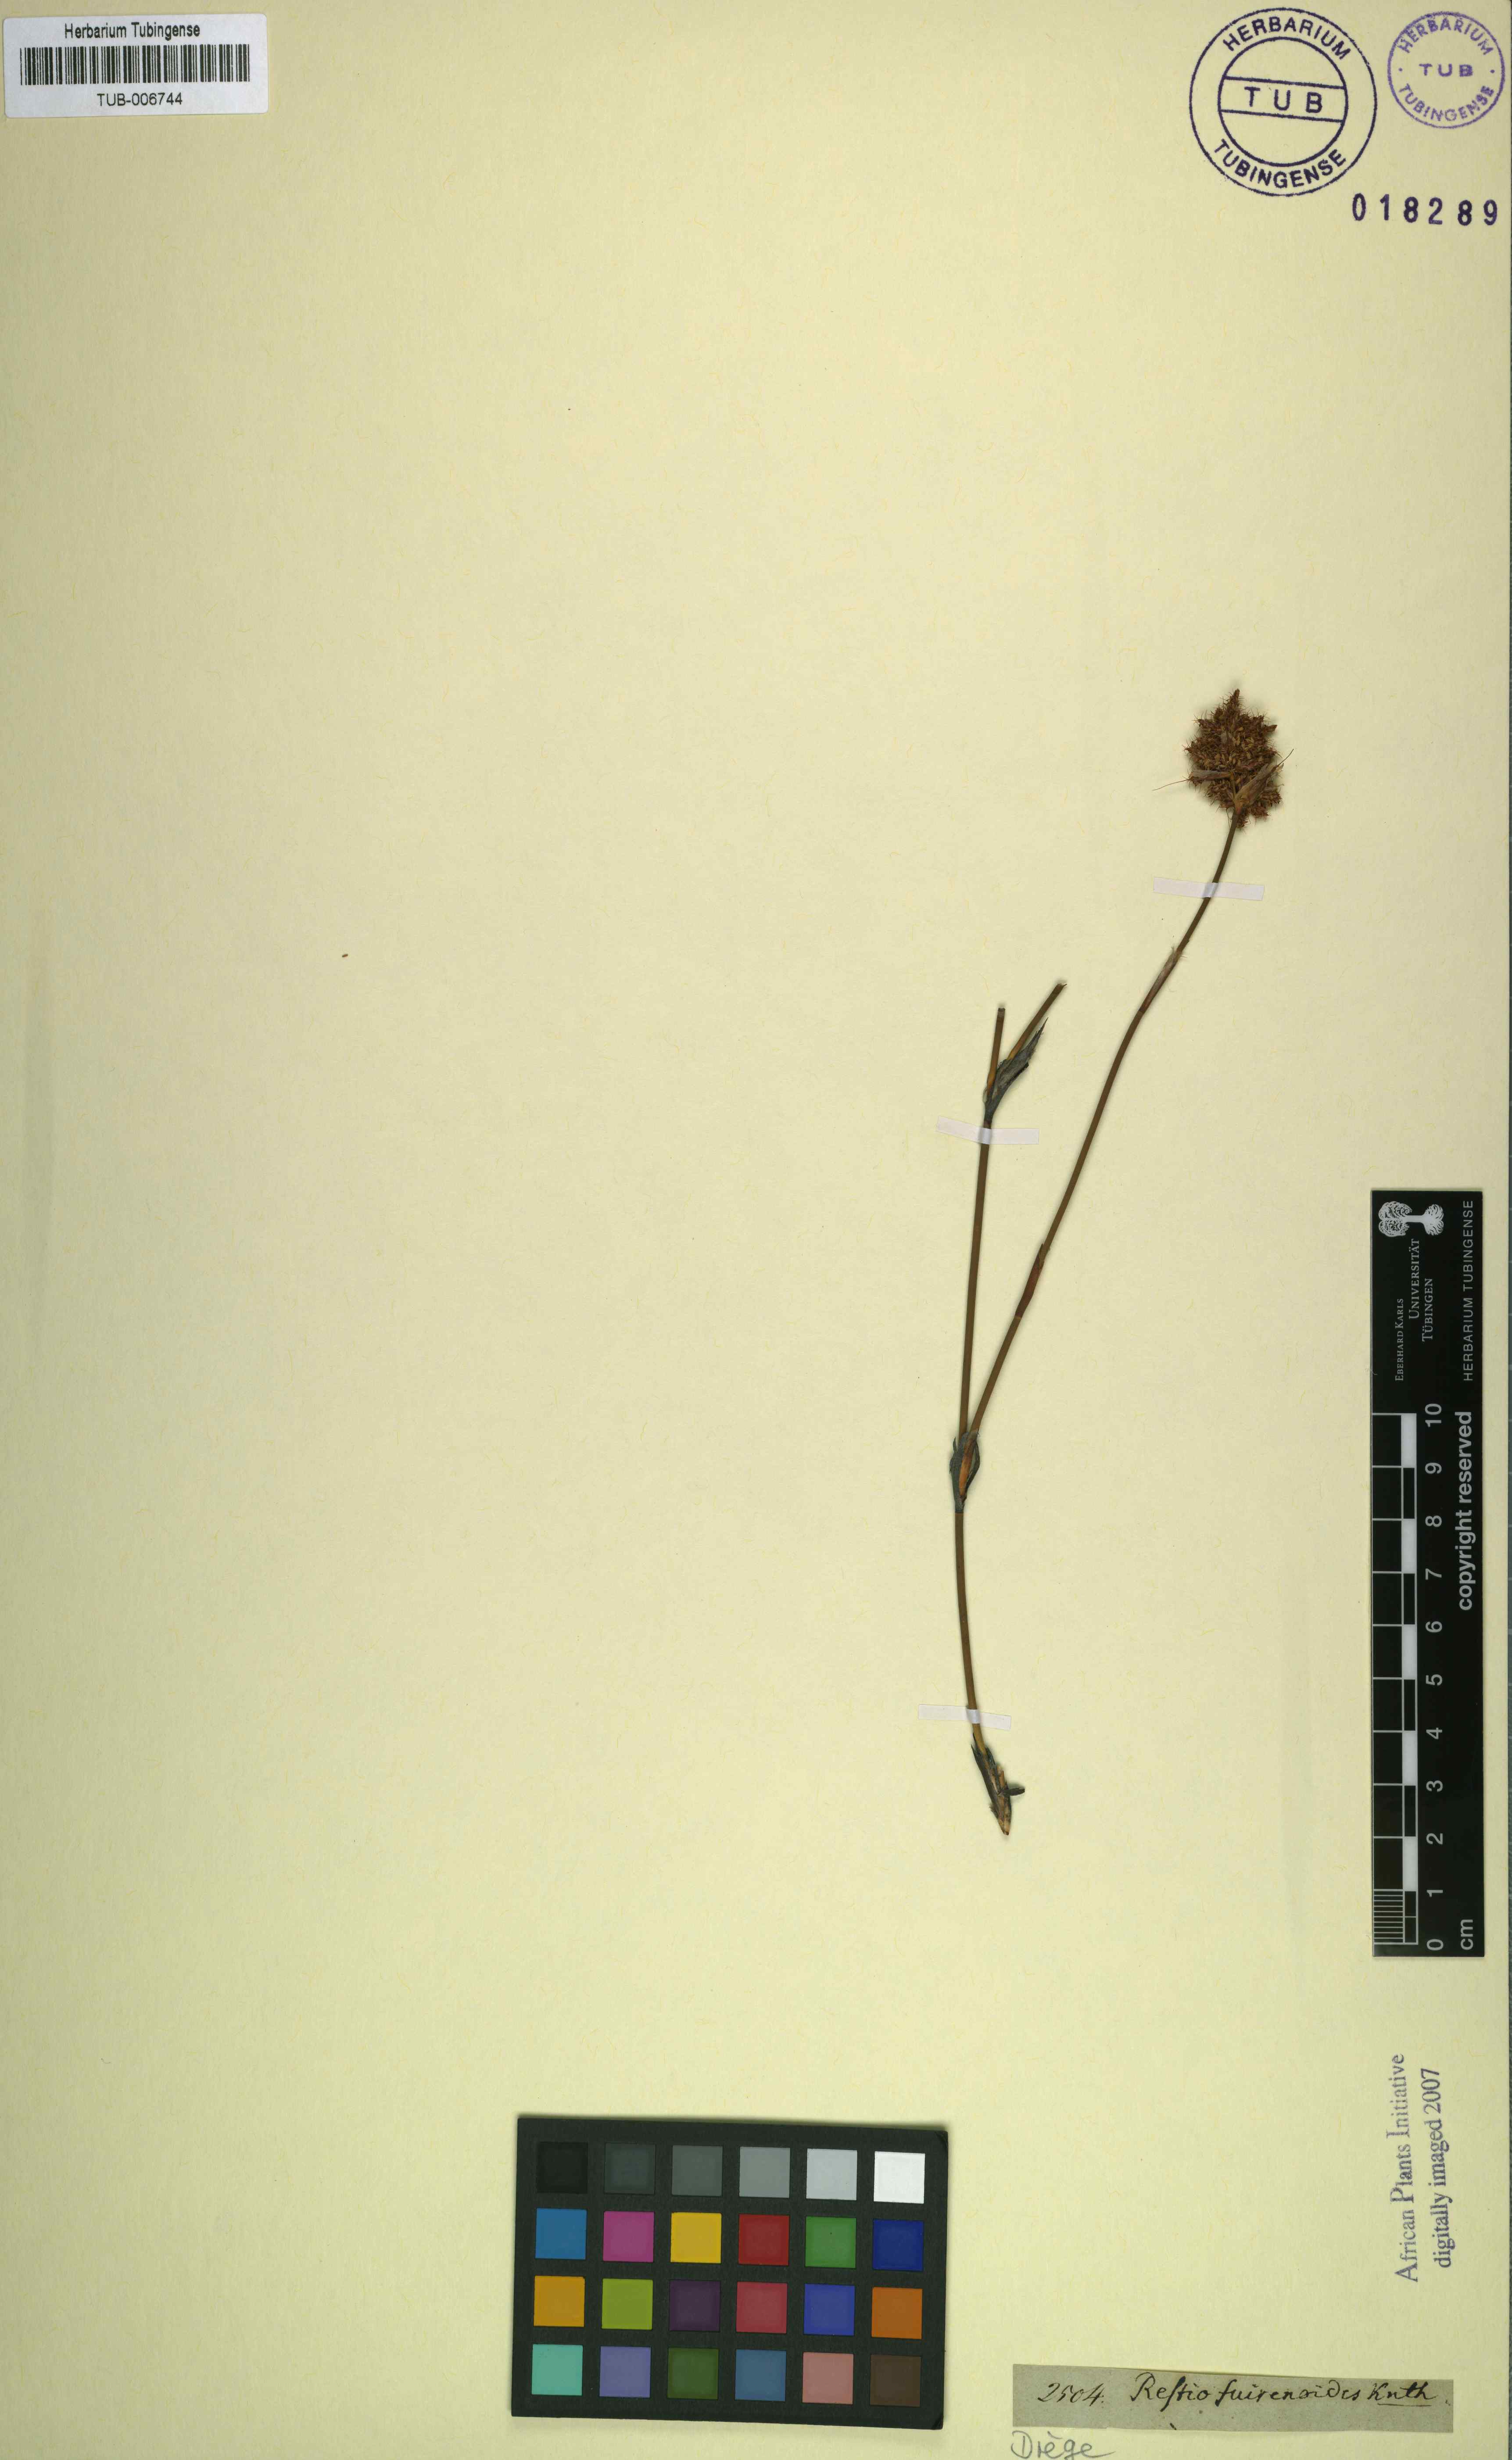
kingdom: Plantae
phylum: Tracheophyta
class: Liliopsida
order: Poales
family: Restionaceae
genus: Restio
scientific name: Restio setiger
